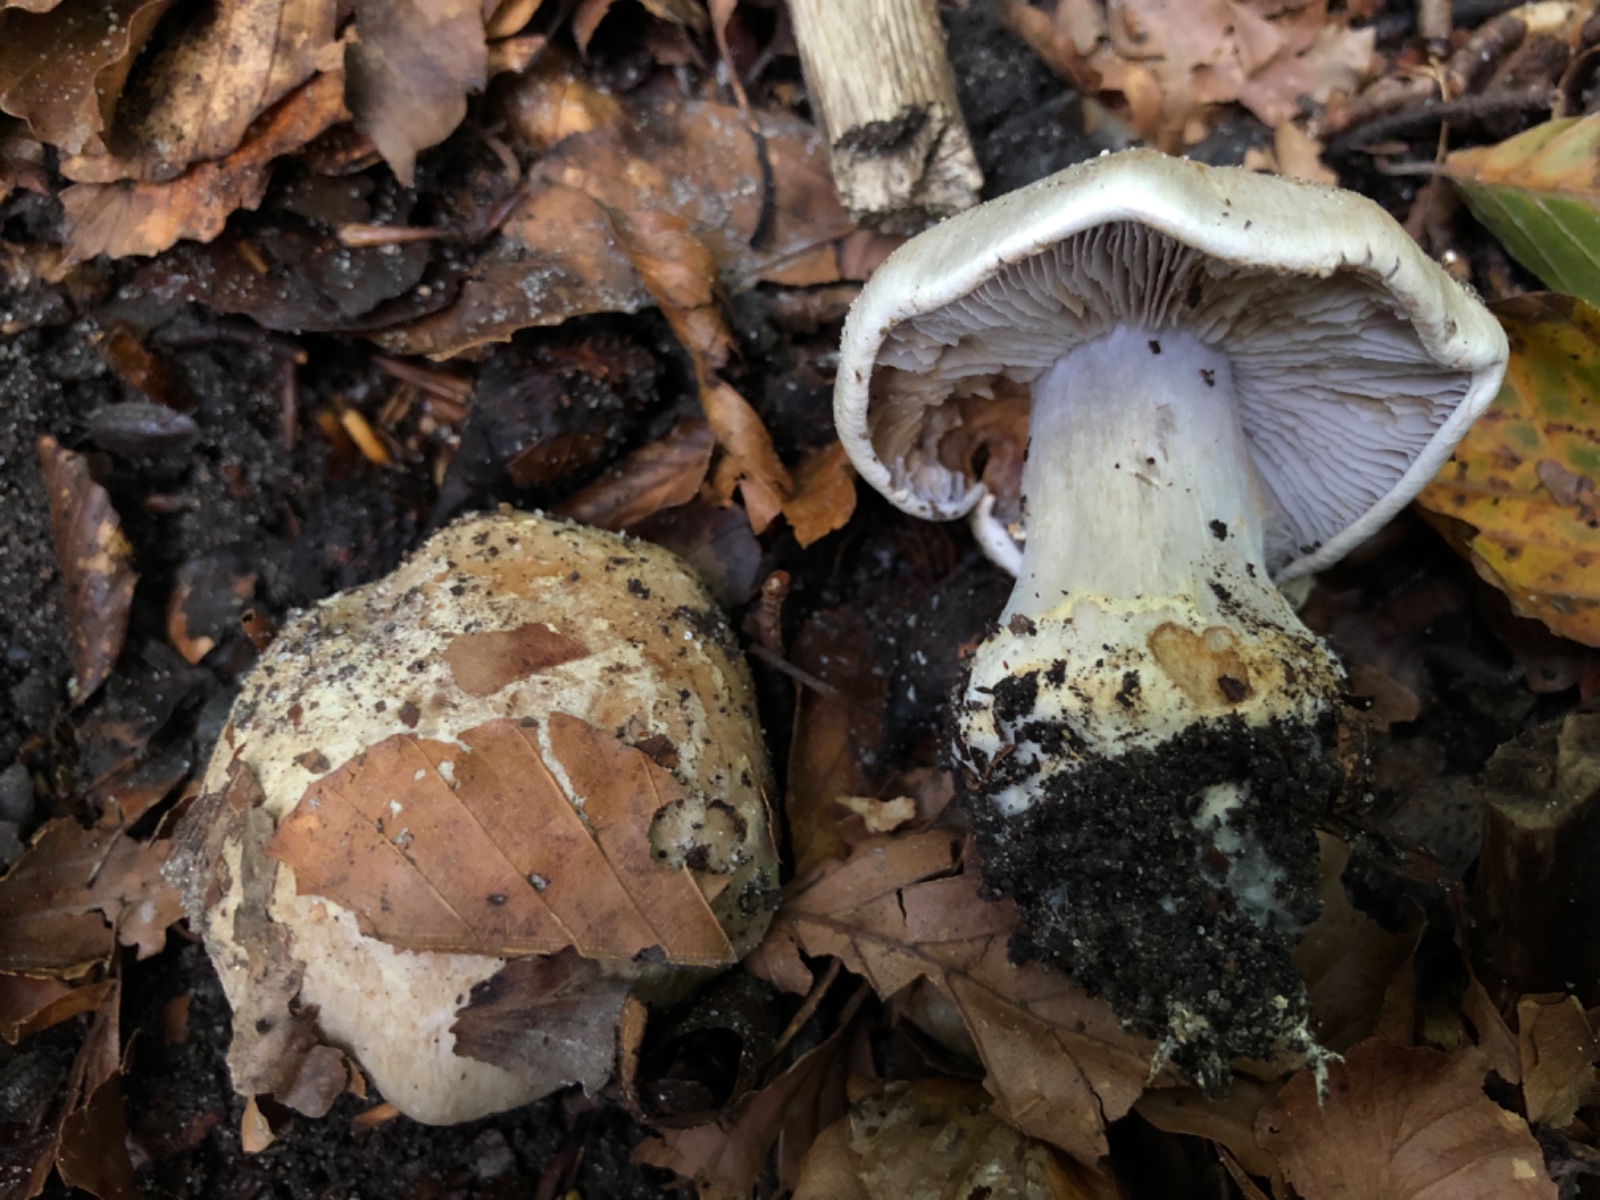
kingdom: Fungi
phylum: Basidiomycota
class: Agaricomycetes
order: Agaricales
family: Cortinariaceae
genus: Cortinarius
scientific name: Cortinarius foetens
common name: stribet slørhat
